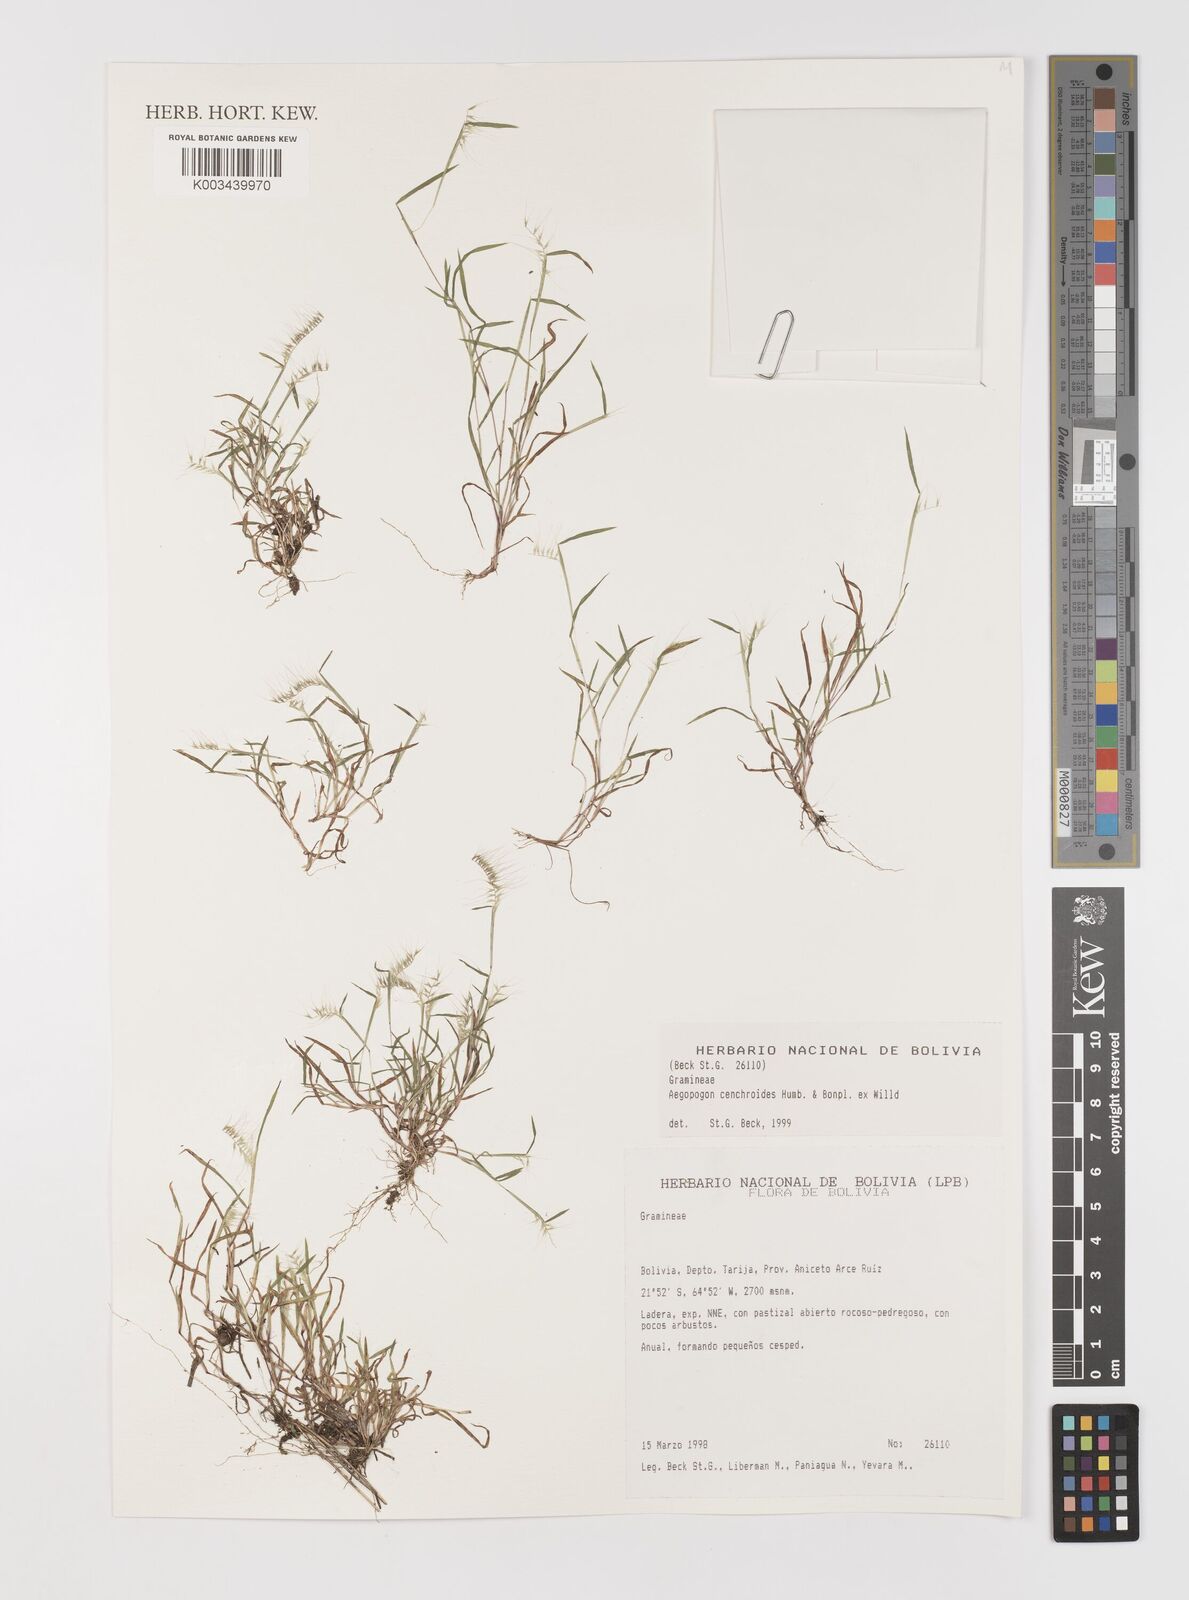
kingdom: Plantae
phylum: Tracheophyta
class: Liliopsida
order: Poales
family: Poaceae
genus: Muhlenbergia
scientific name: Muhlenbergia bryophilus
